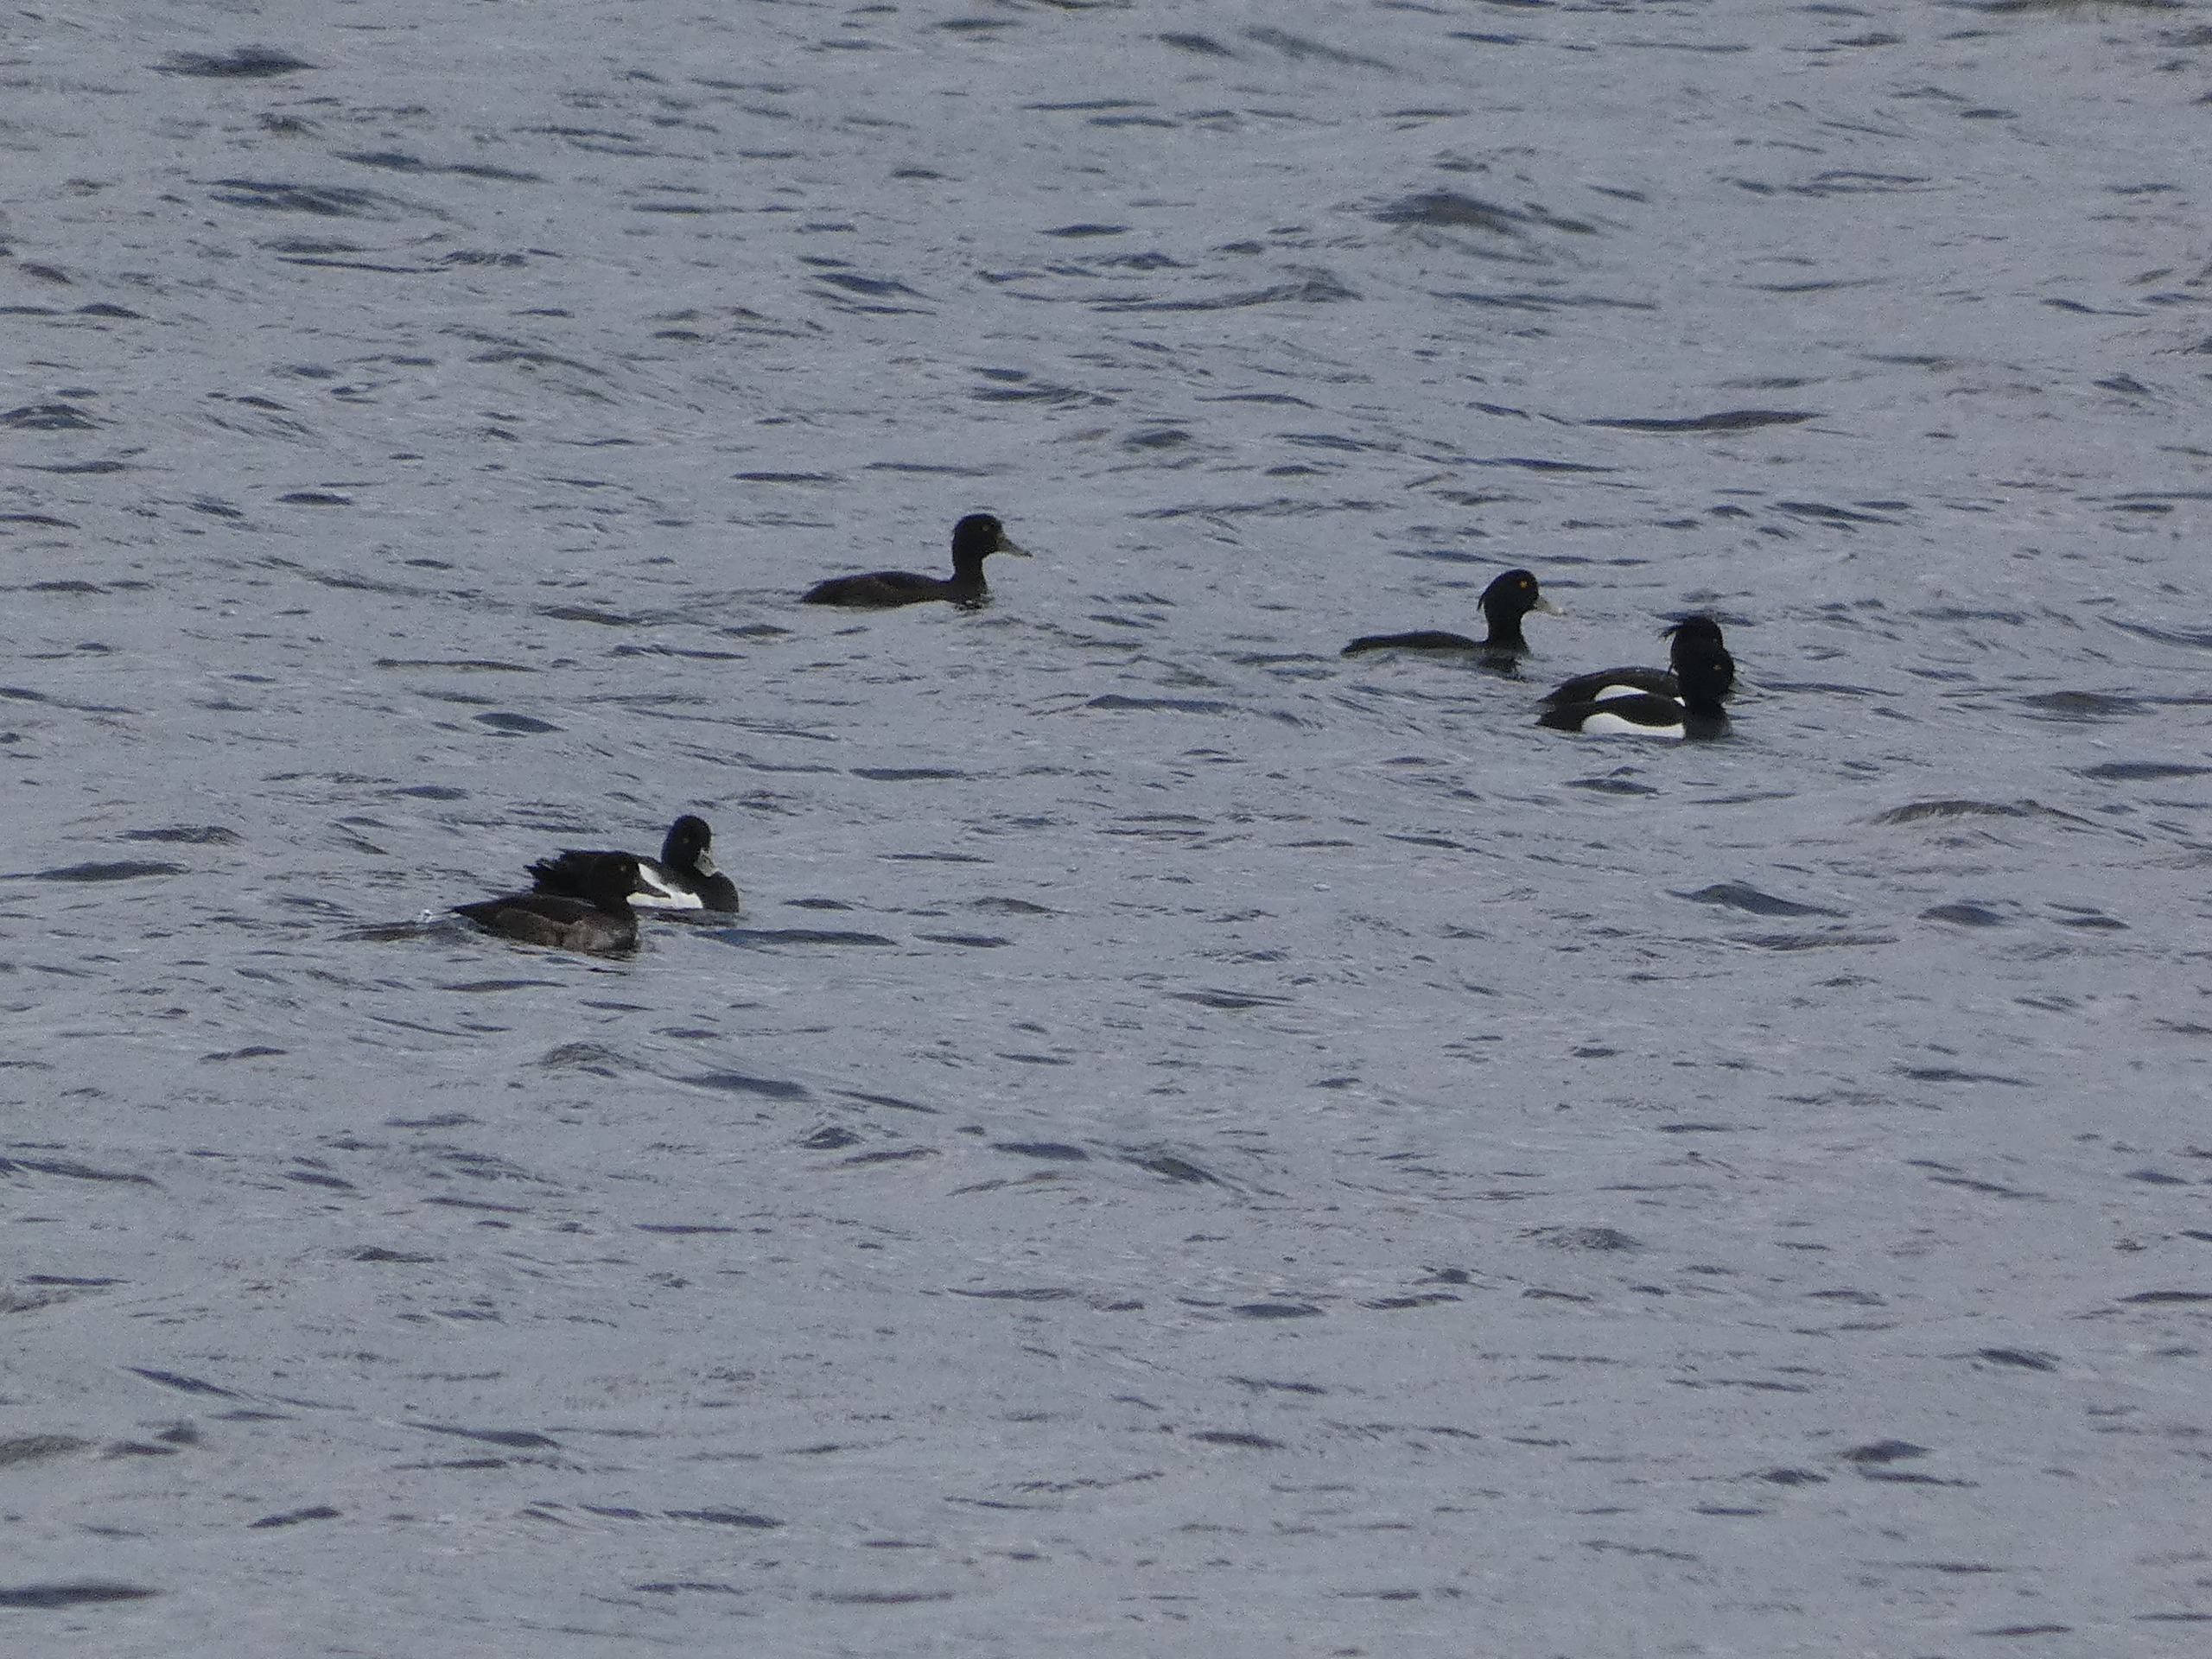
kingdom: Animalia
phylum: Chordata
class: Aves
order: Anseriformes
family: Anatidae
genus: Aythya
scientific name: Aythya fuligula
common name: Troldand
